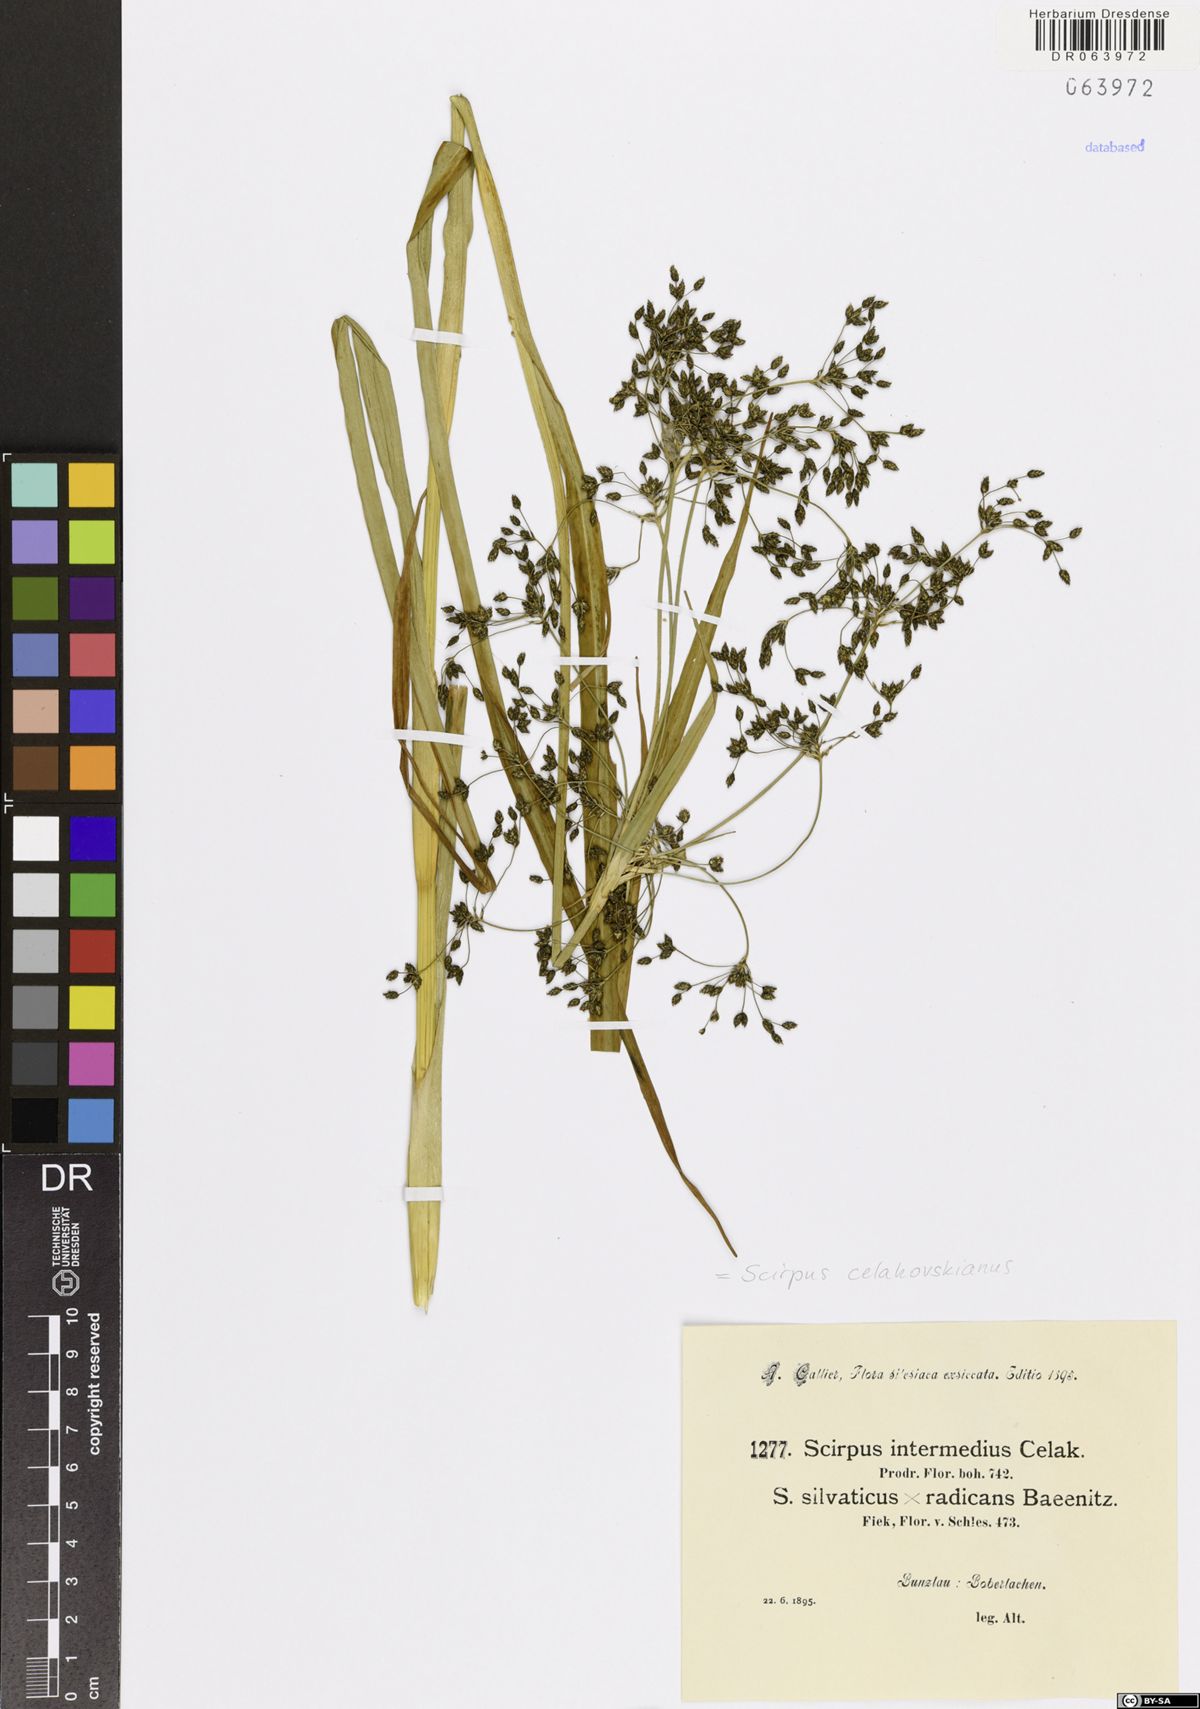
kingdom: Plantae
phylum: Tracheophyta
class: Liliopsida
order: Poales
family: Cyperaceae
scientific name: Cyperaceae
